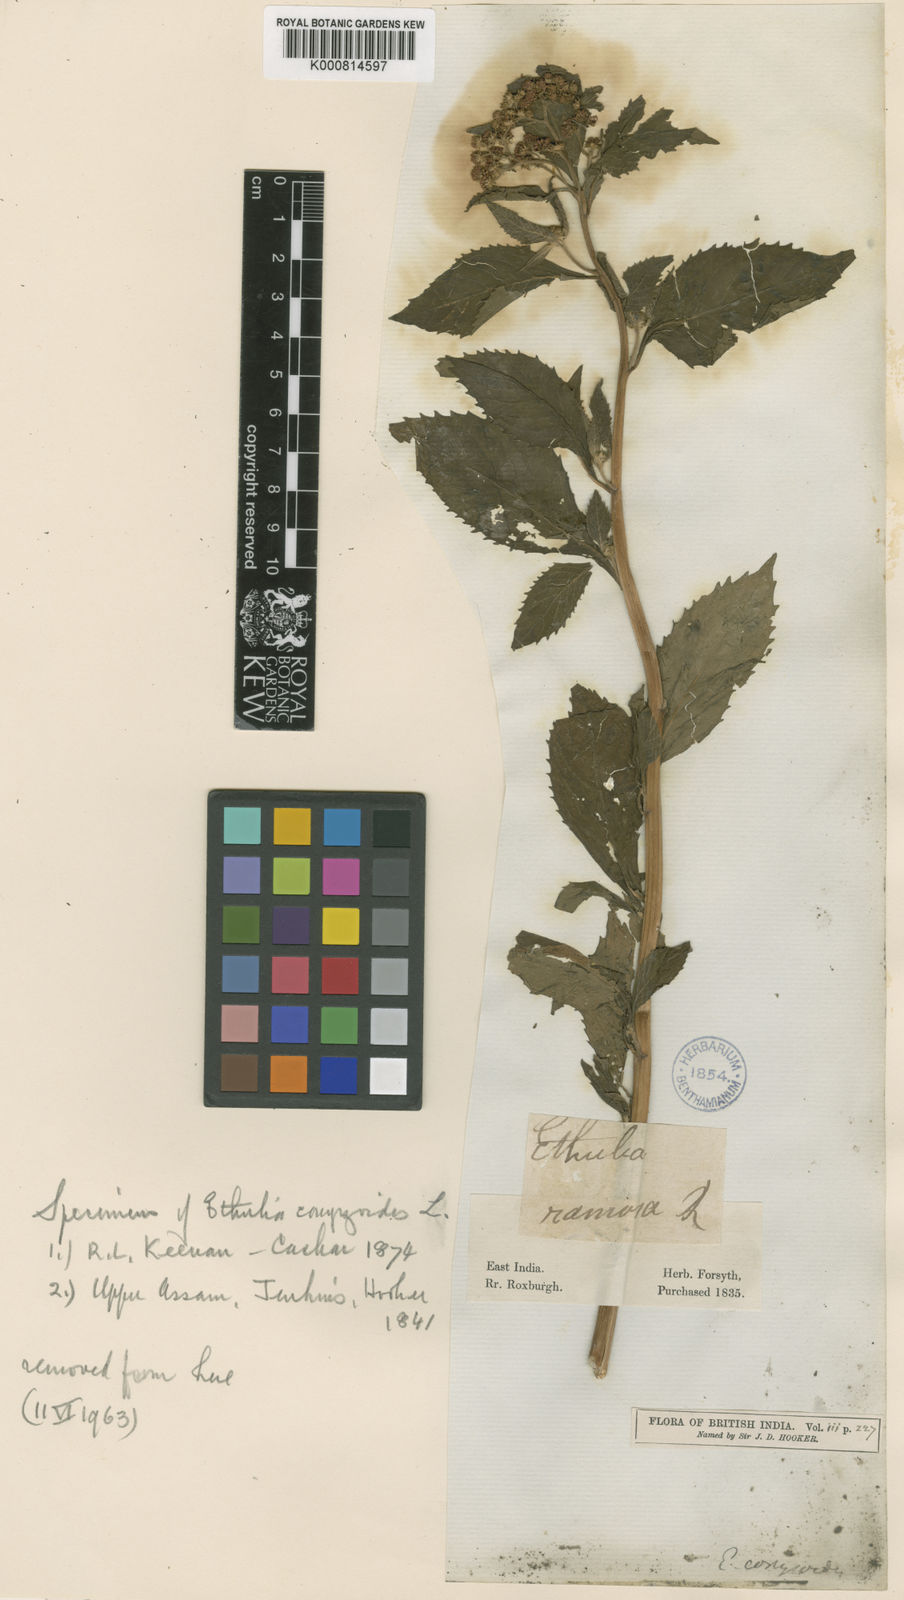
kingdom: Plantae
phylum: Tracheophyta
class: Magnoliopsida
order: Asterales
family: Asteraceae
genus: Ethulia
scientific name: Ethulia conyzoides
